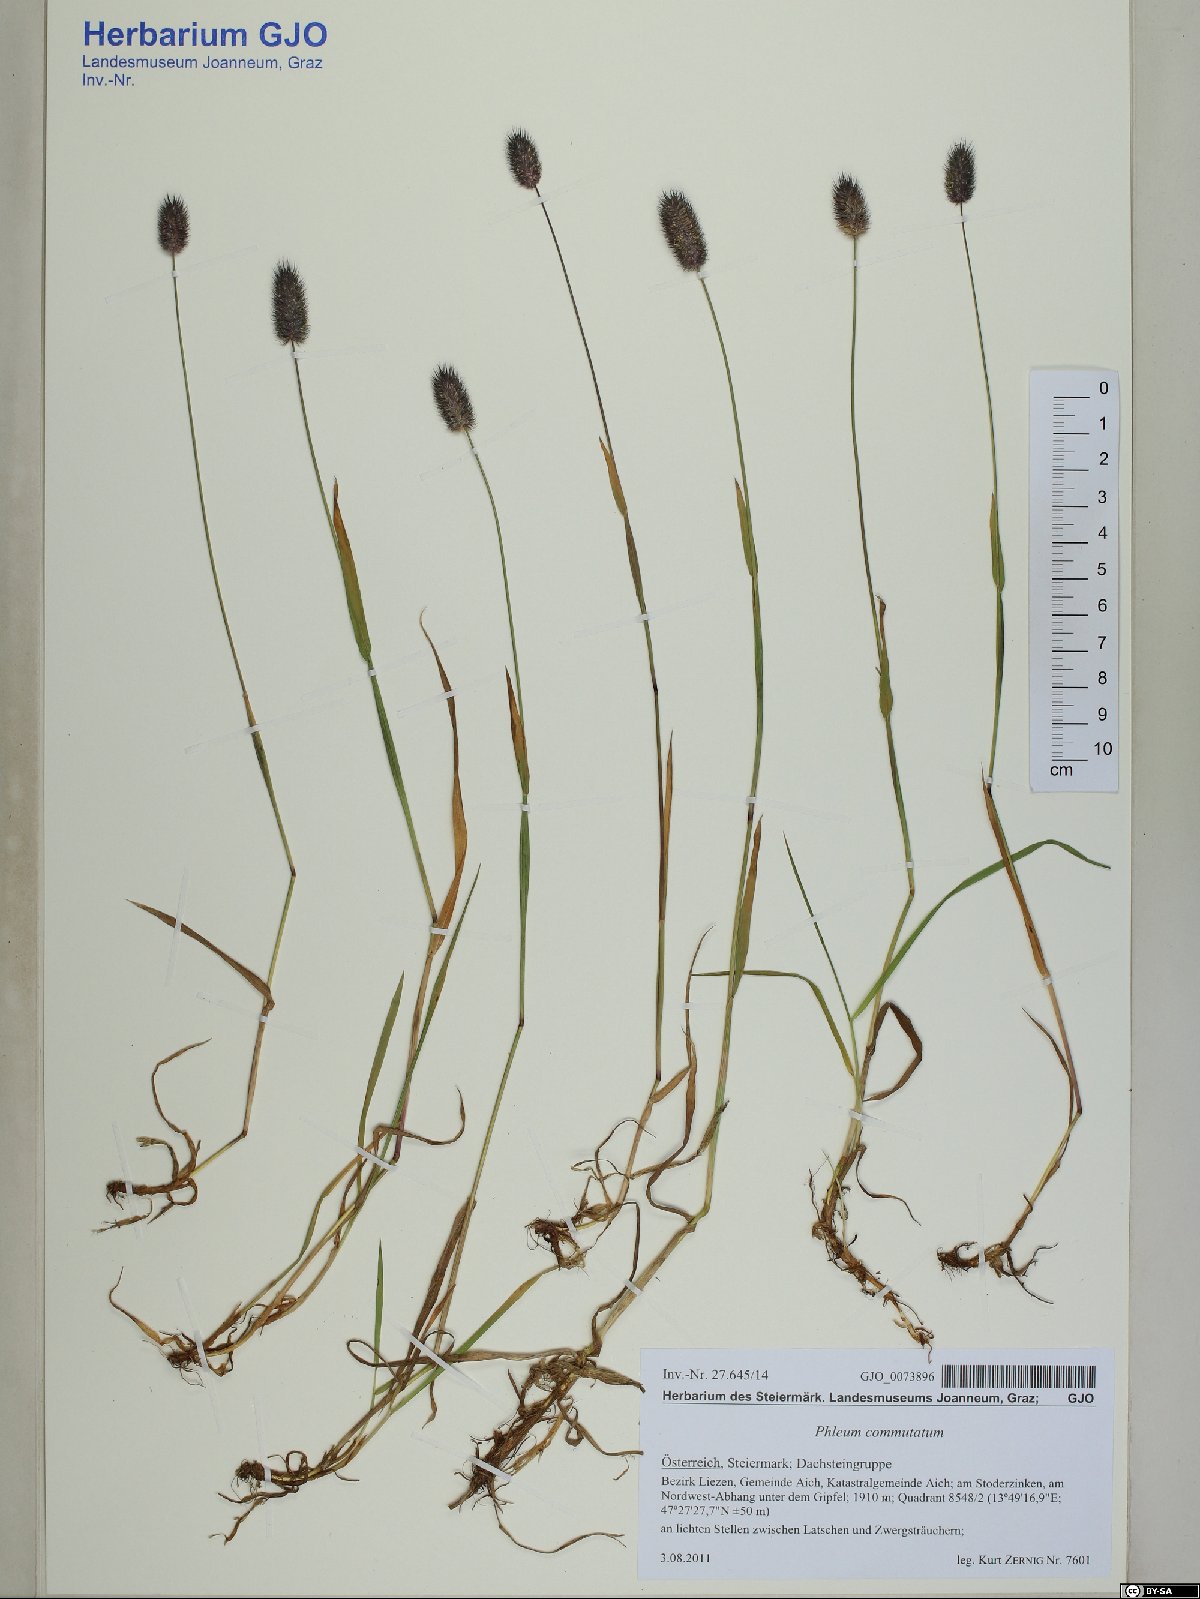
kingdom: Plantae
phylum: Tracheophyta
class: Liliopsida
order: Poales
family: Poaceae
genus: Phleum
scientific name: Phleum alpinum
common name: Alpine cat's-tail
